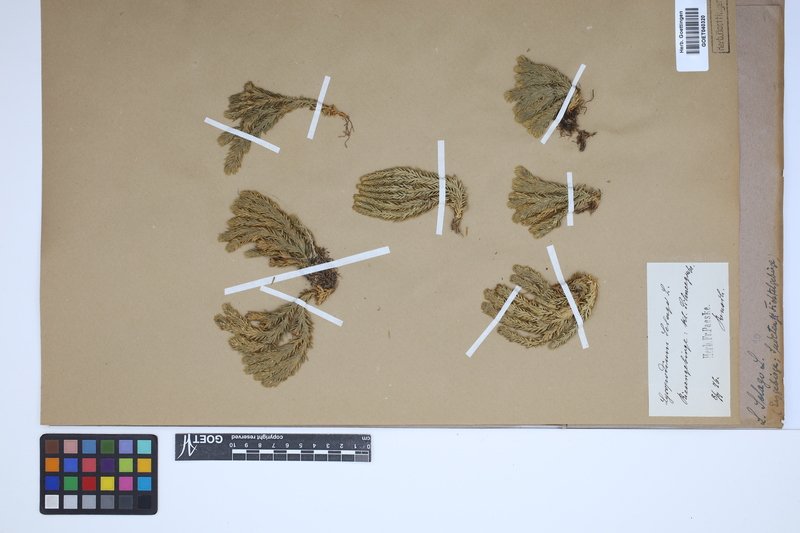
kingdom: Plantae
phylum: Tracheophyta
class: Lycopodiopsida
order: Lycopodiales
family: Lycopodiaceae
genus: Huperzia
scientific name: Huperzia selago
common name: Northern firmoss
